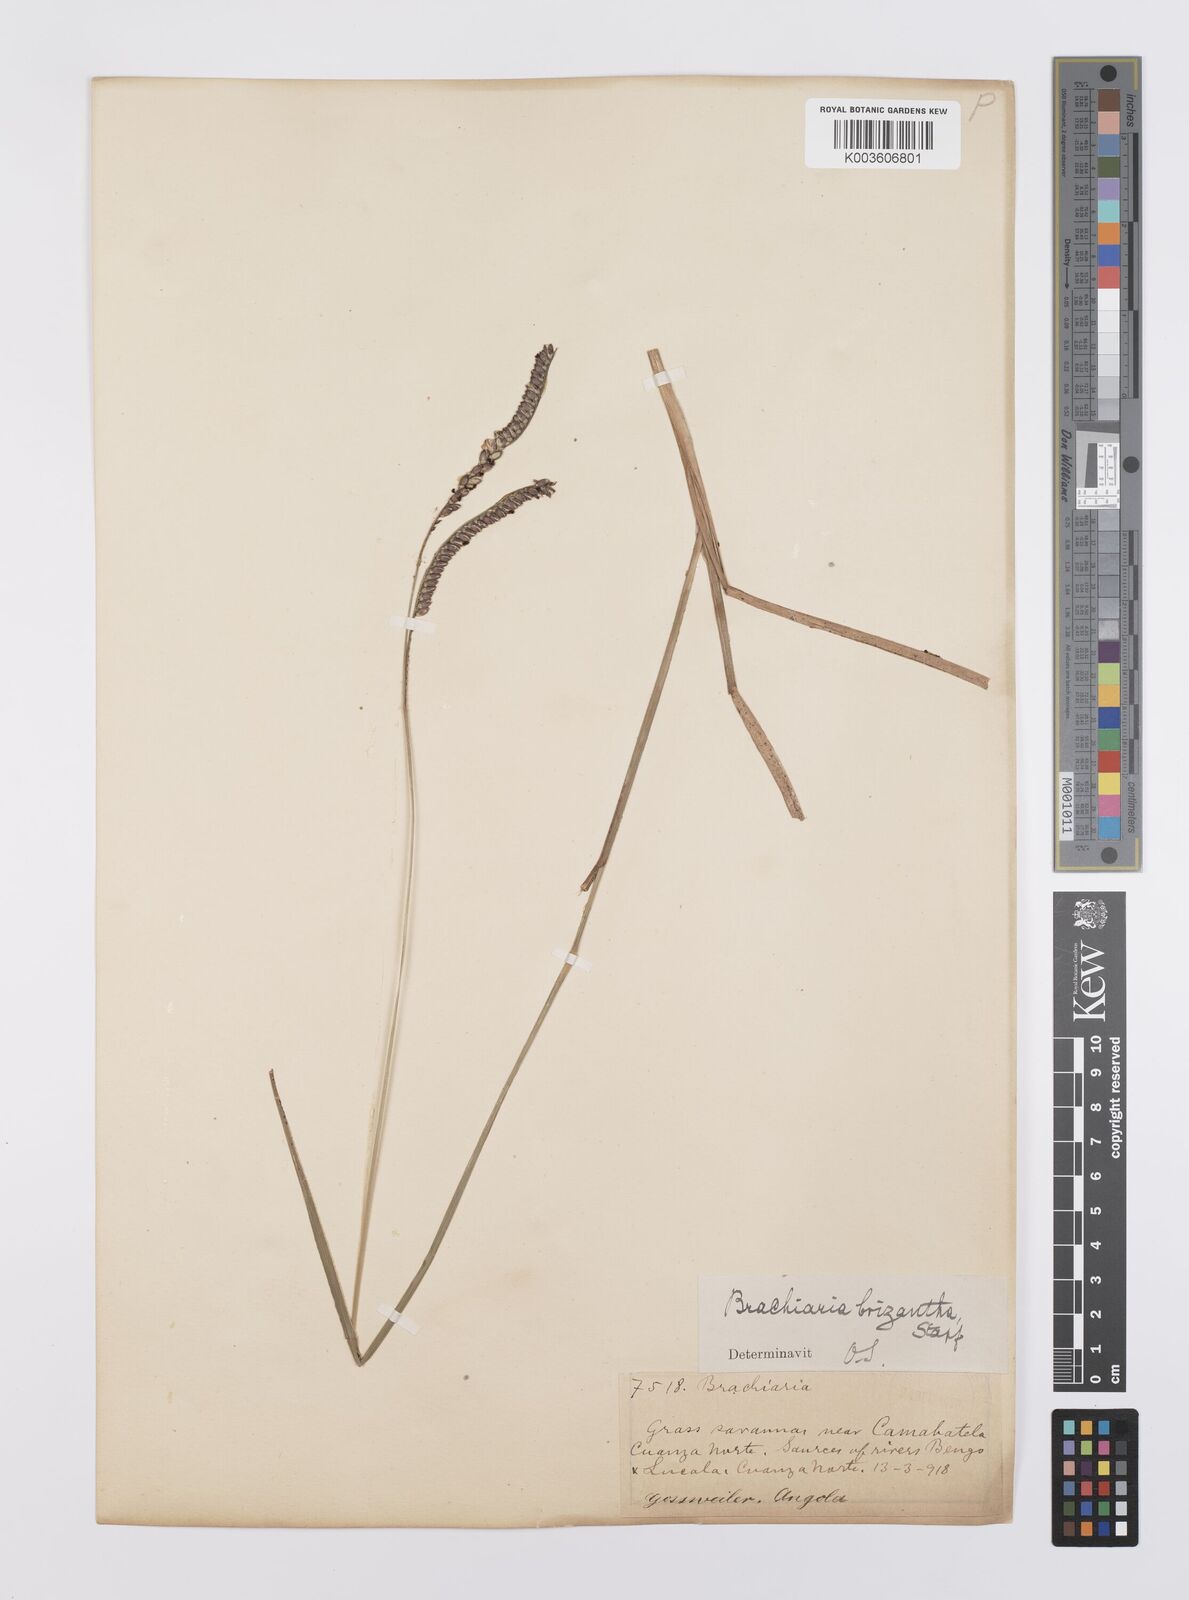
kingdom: Plantae
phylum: Tracheophyta
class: Liliopsida
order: Poales
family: Poaceae
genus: Urochloa
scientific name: Urochloa brizantha
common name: Palisade signalgrass
